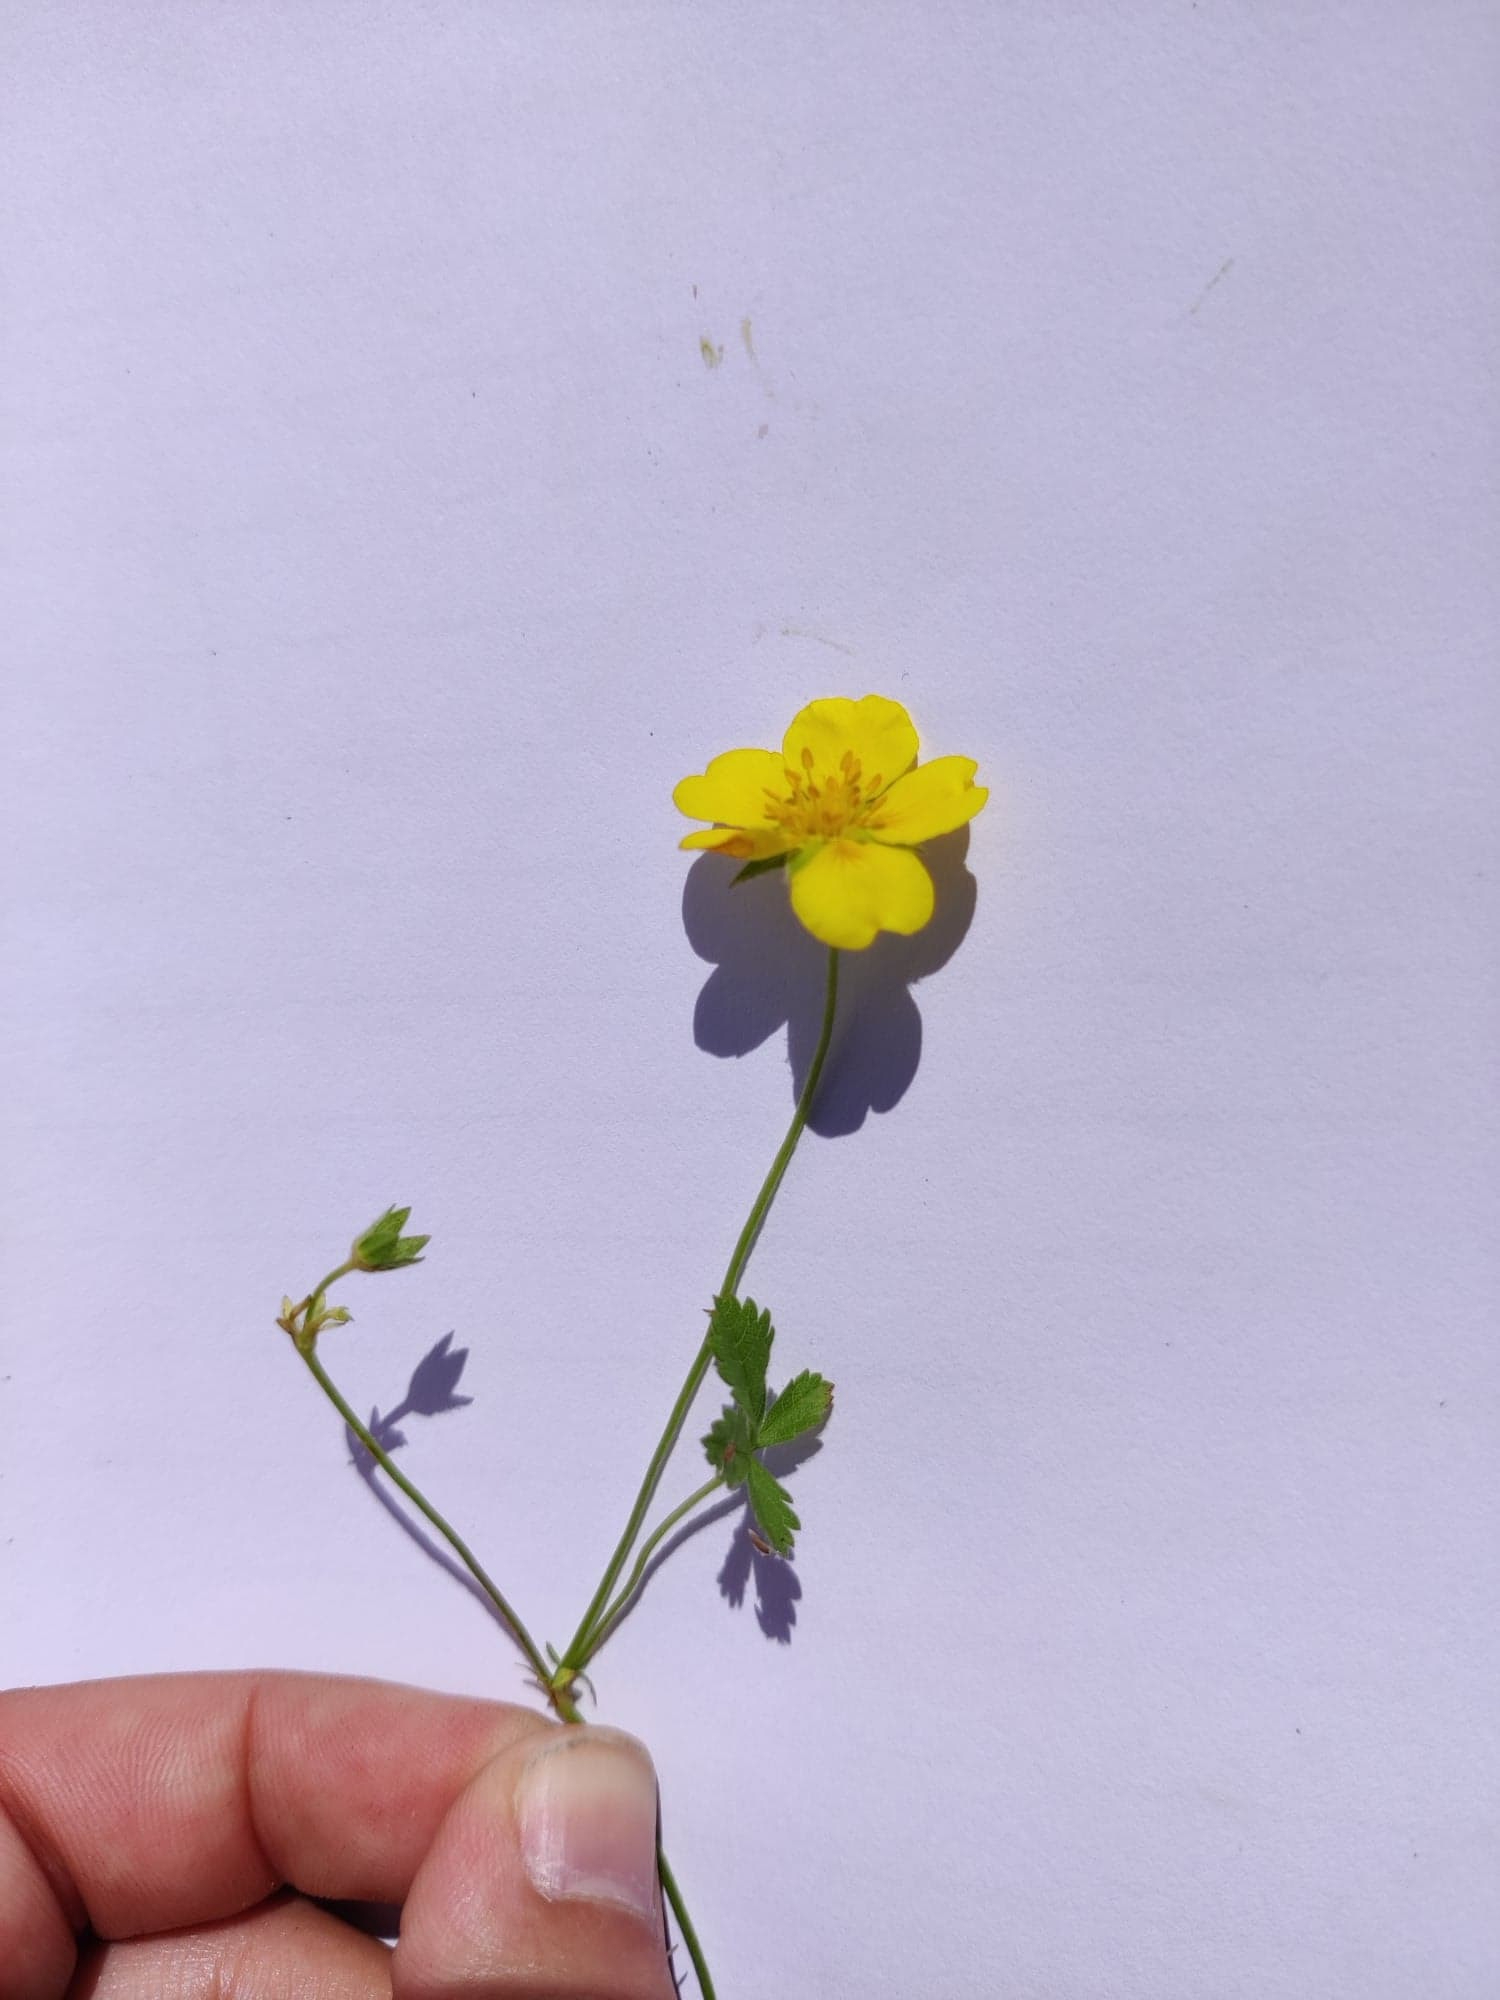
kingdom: Plantae
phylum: Tracheophyta
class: Magnoliopsida
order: Rosales
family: Rosaceae
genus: Potentilla
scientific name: Potentilla reptans
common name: Krybende potentil
